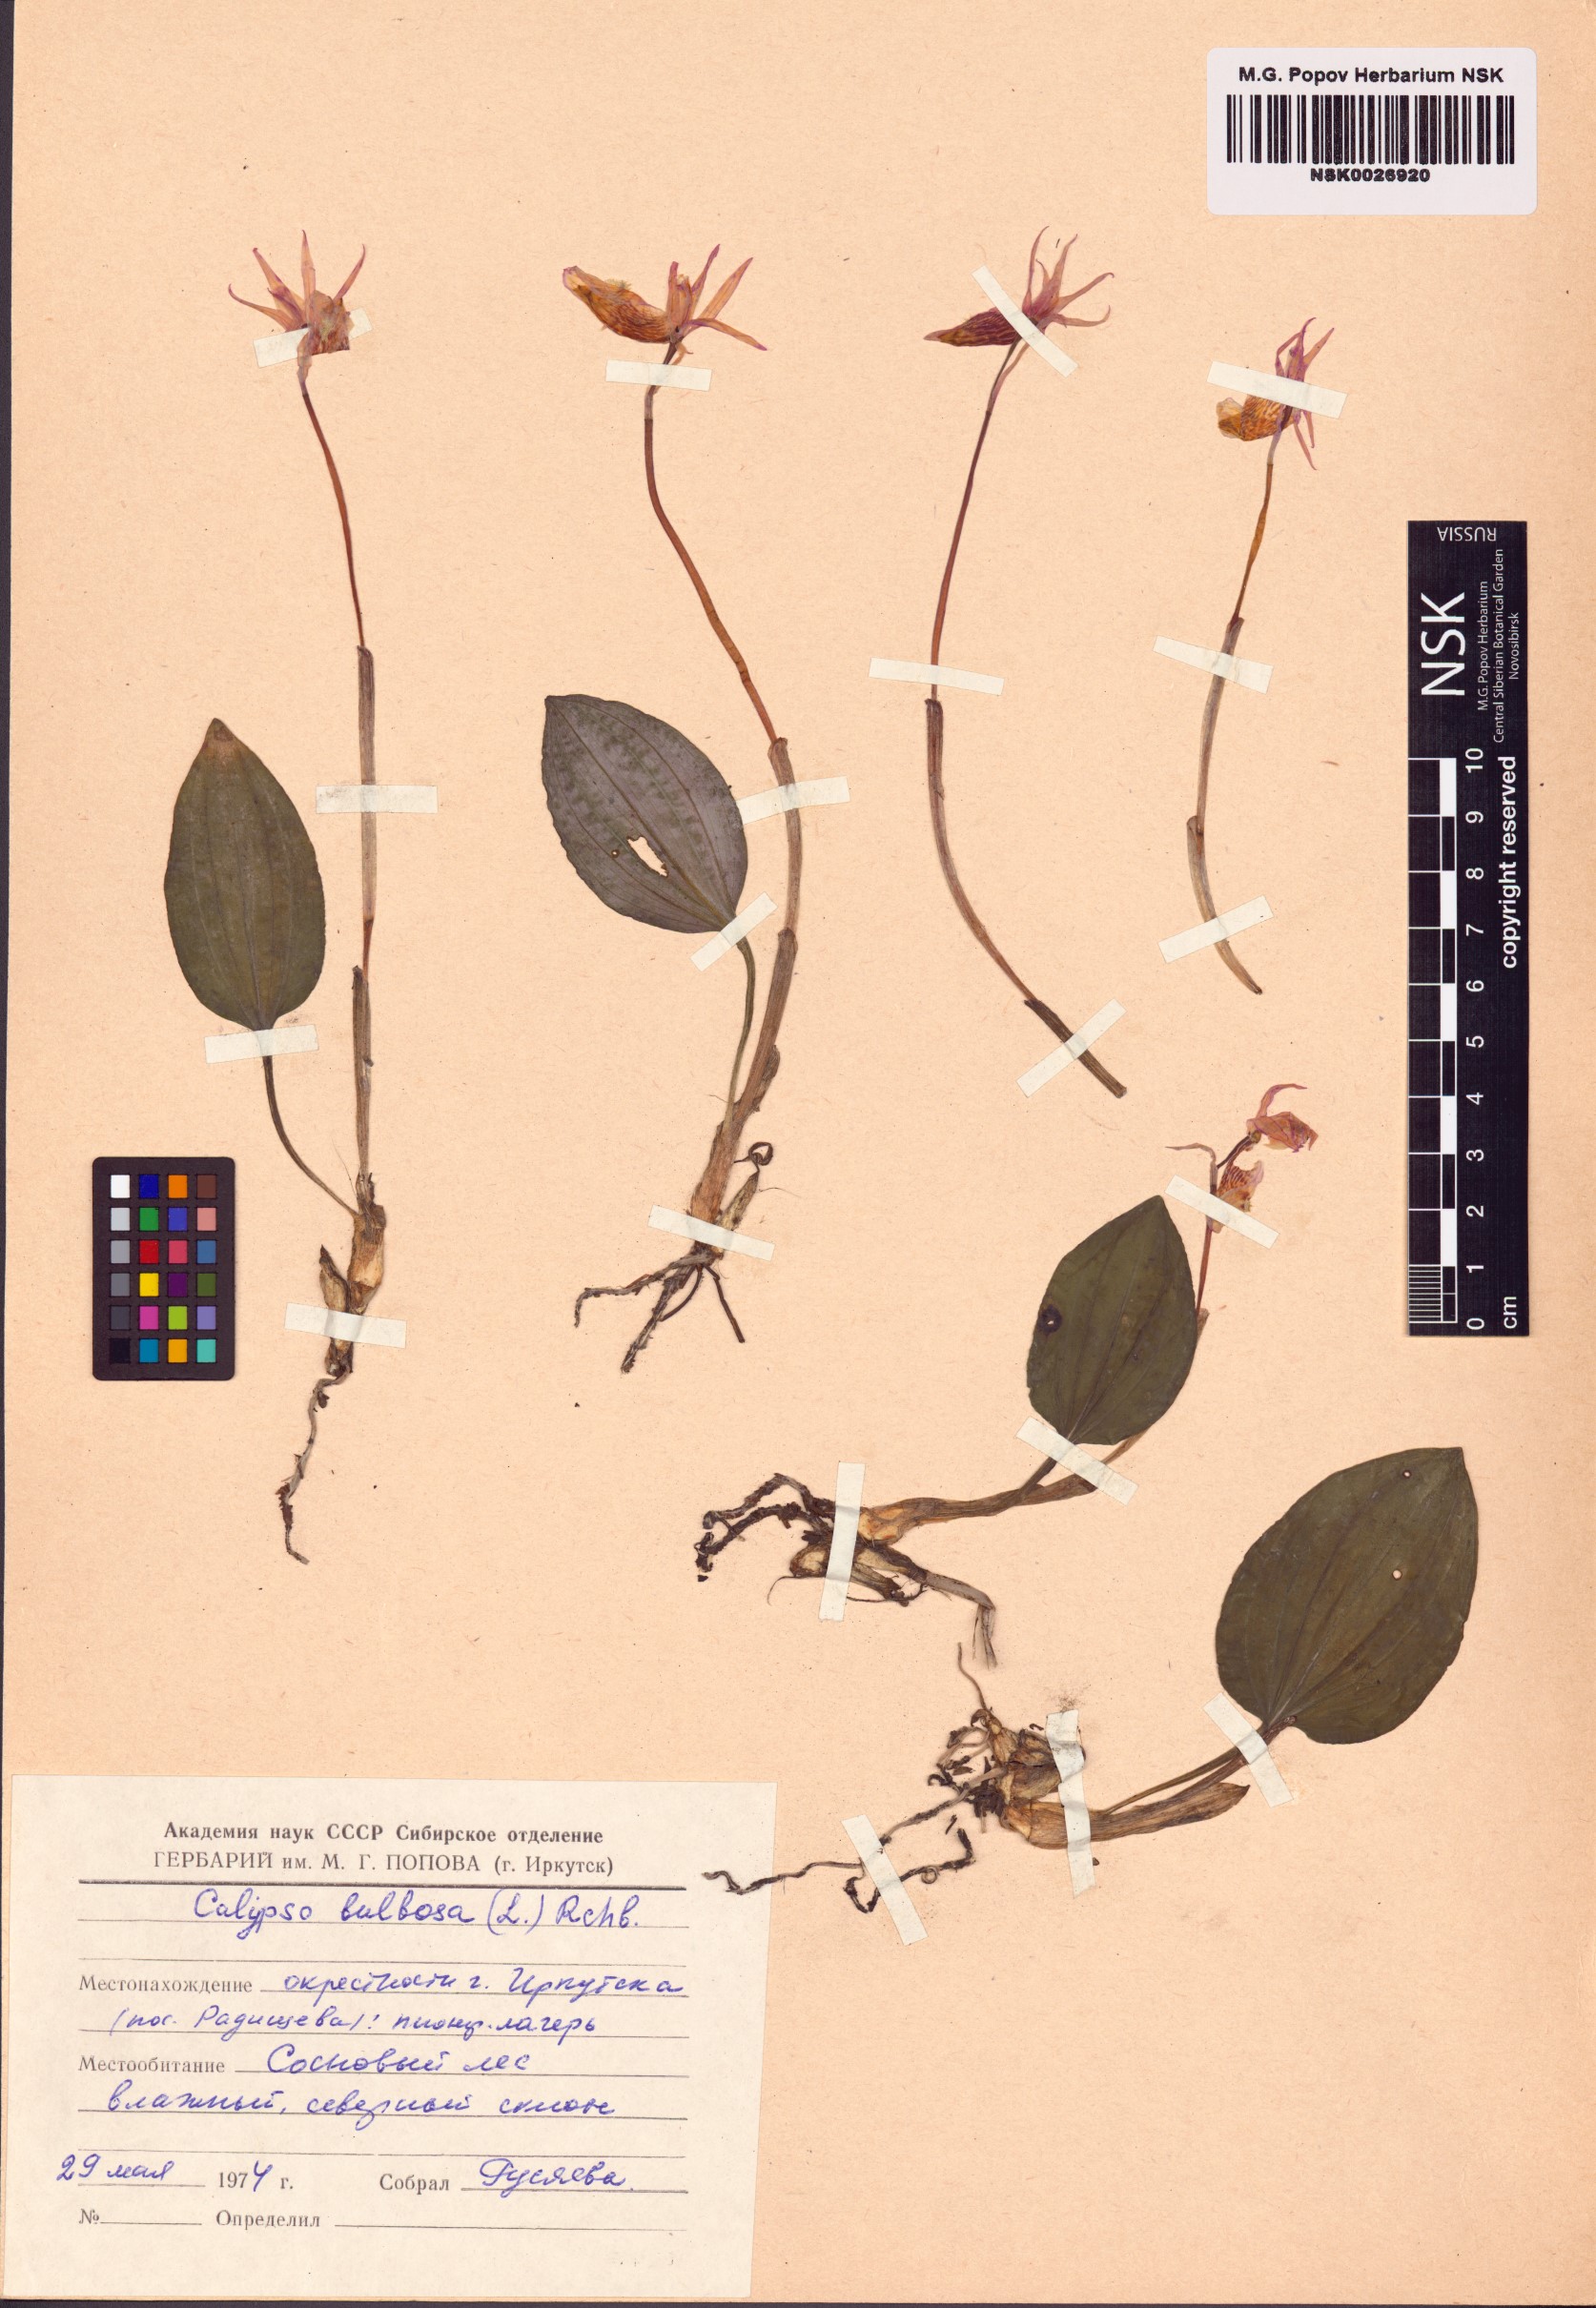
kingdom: Plantae
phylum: Tracheophyta
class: Liliopsida
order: Asparagales
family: Orchidaceae
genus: Calypso
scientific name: Calypso bulbosa
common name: Calypso
